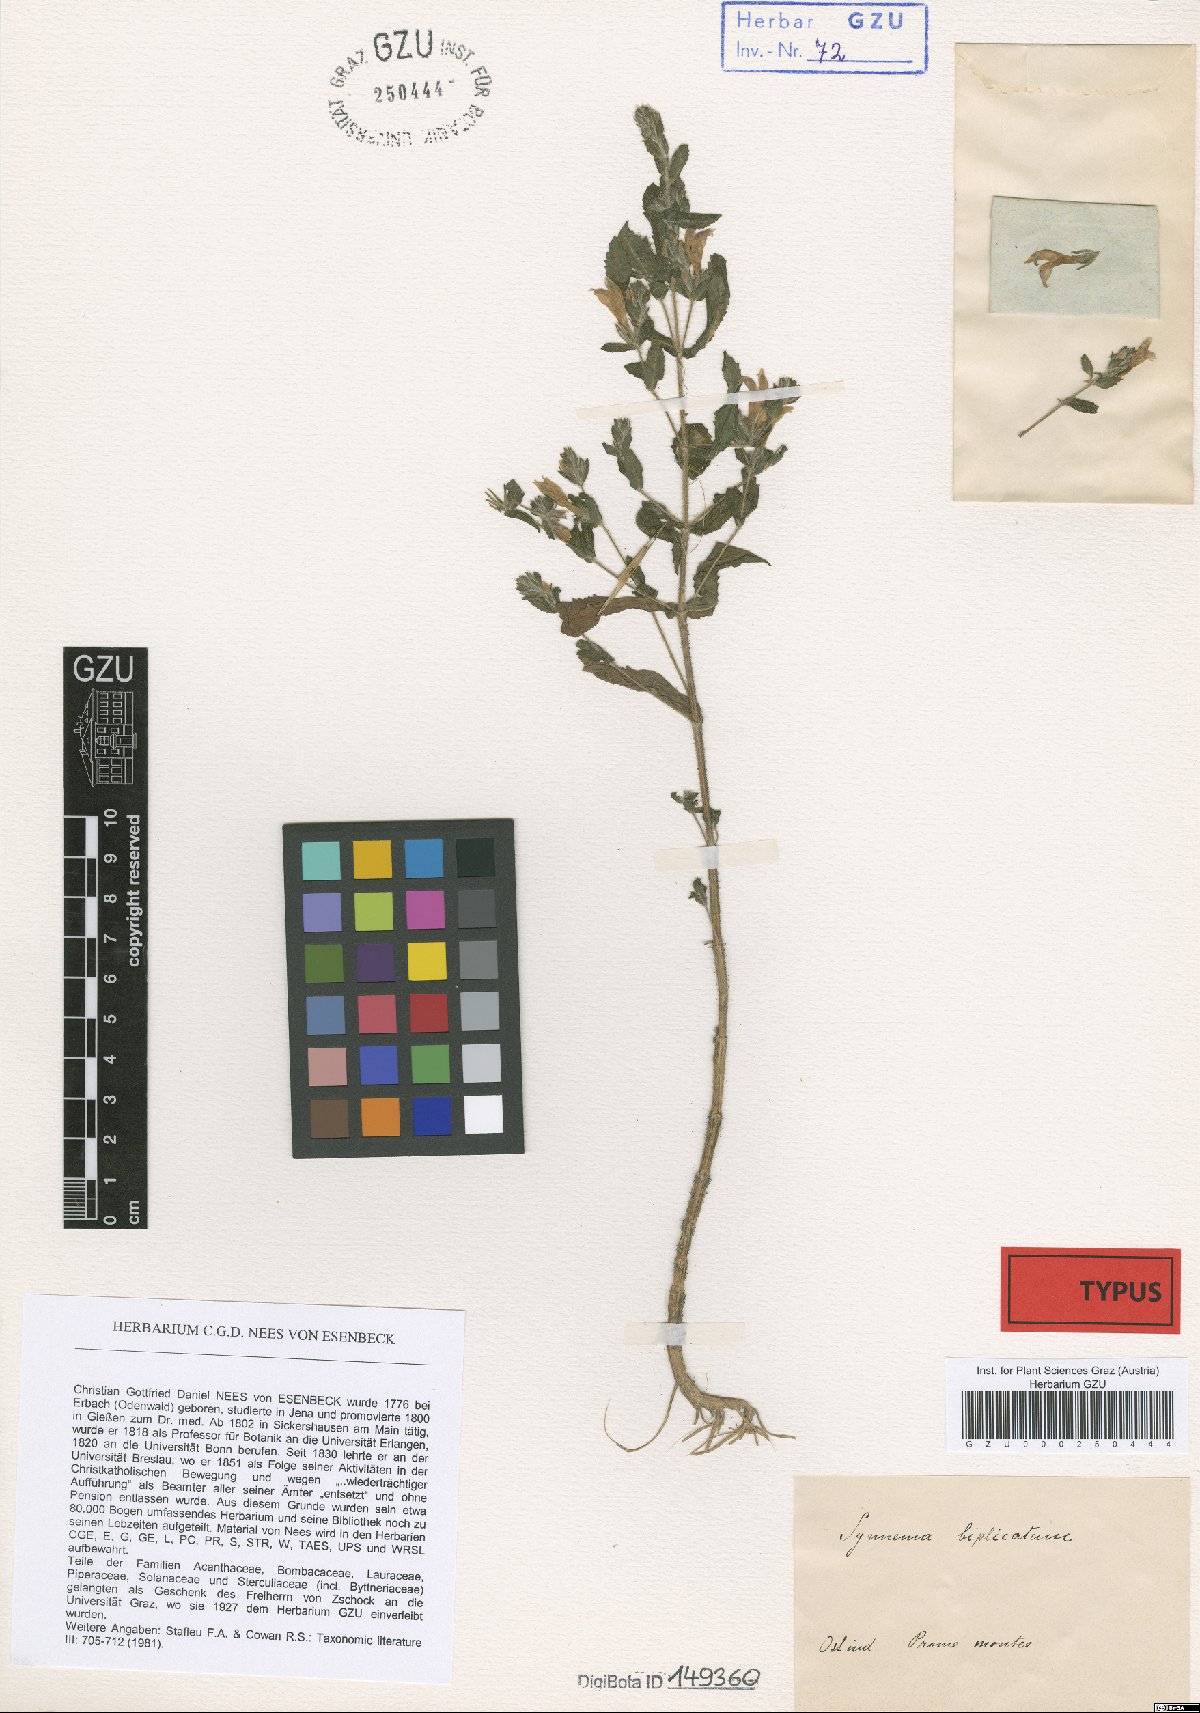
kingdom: Plantae
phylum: Tracheophyta
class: Magnoliopsida
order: Lamiales
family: Acanthaceae
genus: Hygrophila
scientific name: Hygrophila biplicata
